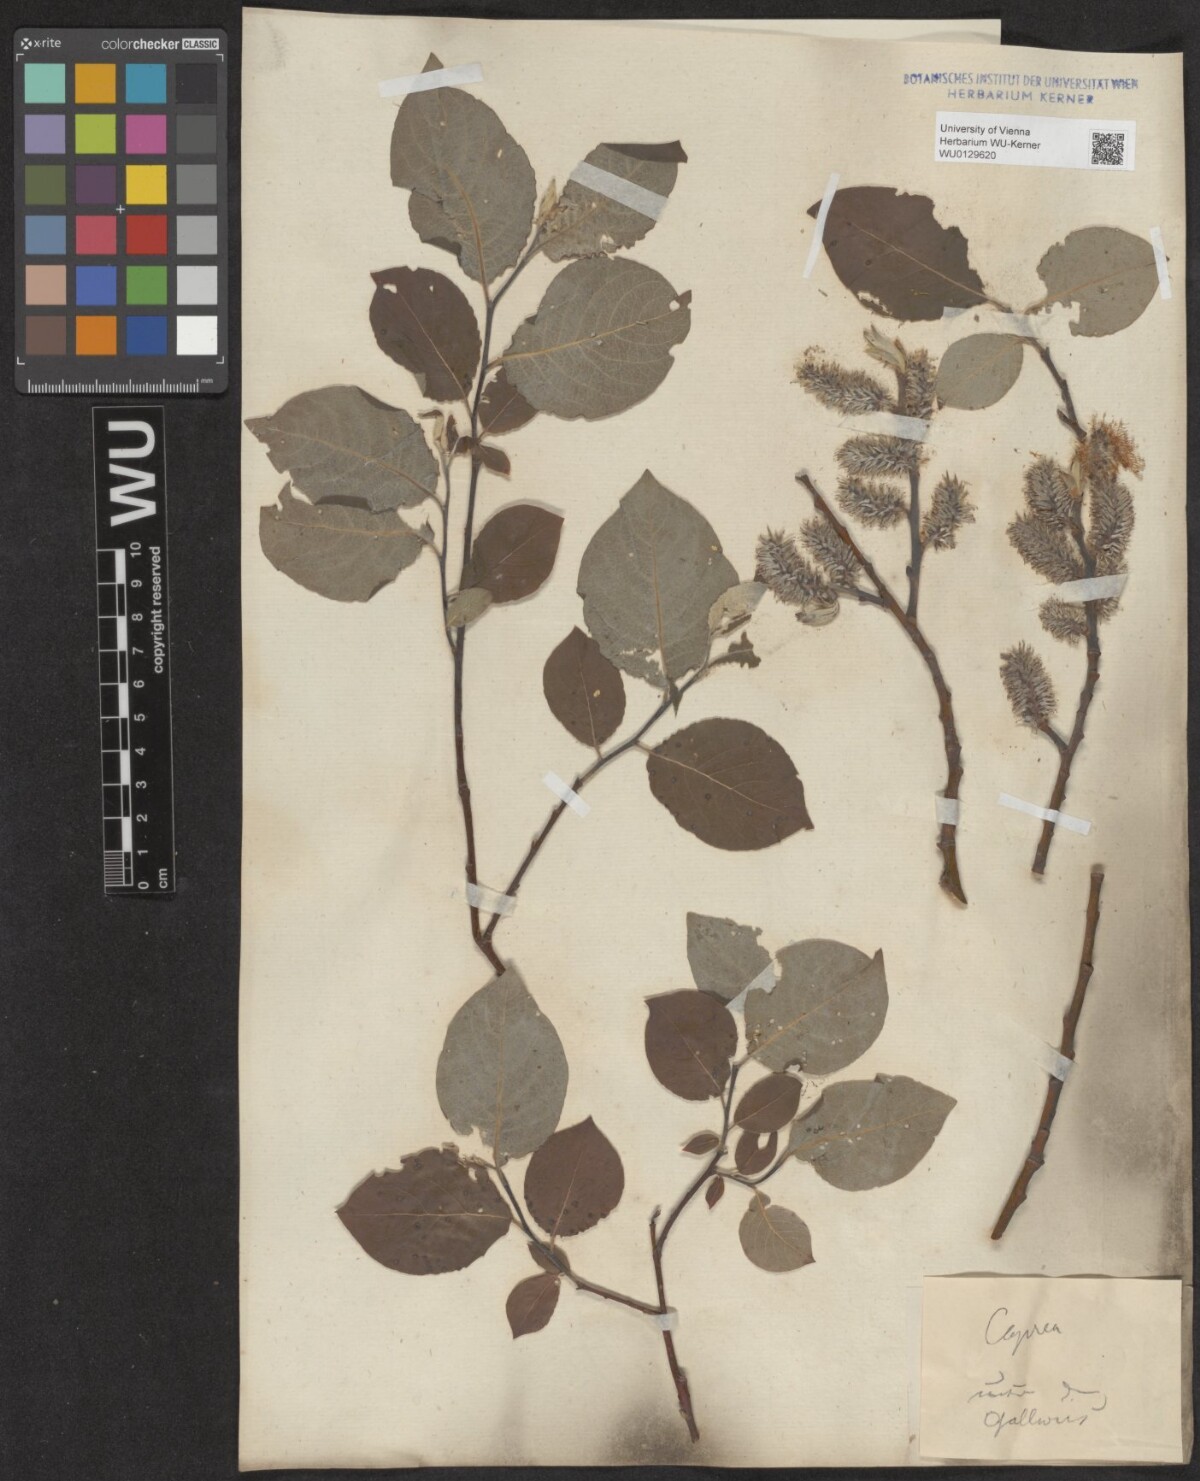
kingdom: Plantae
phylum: Tracheophyta
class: Magnoliopsida
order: Malpighiales
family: Salicaceae
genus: Salix
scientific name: Salix caprea
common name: Goat willow
